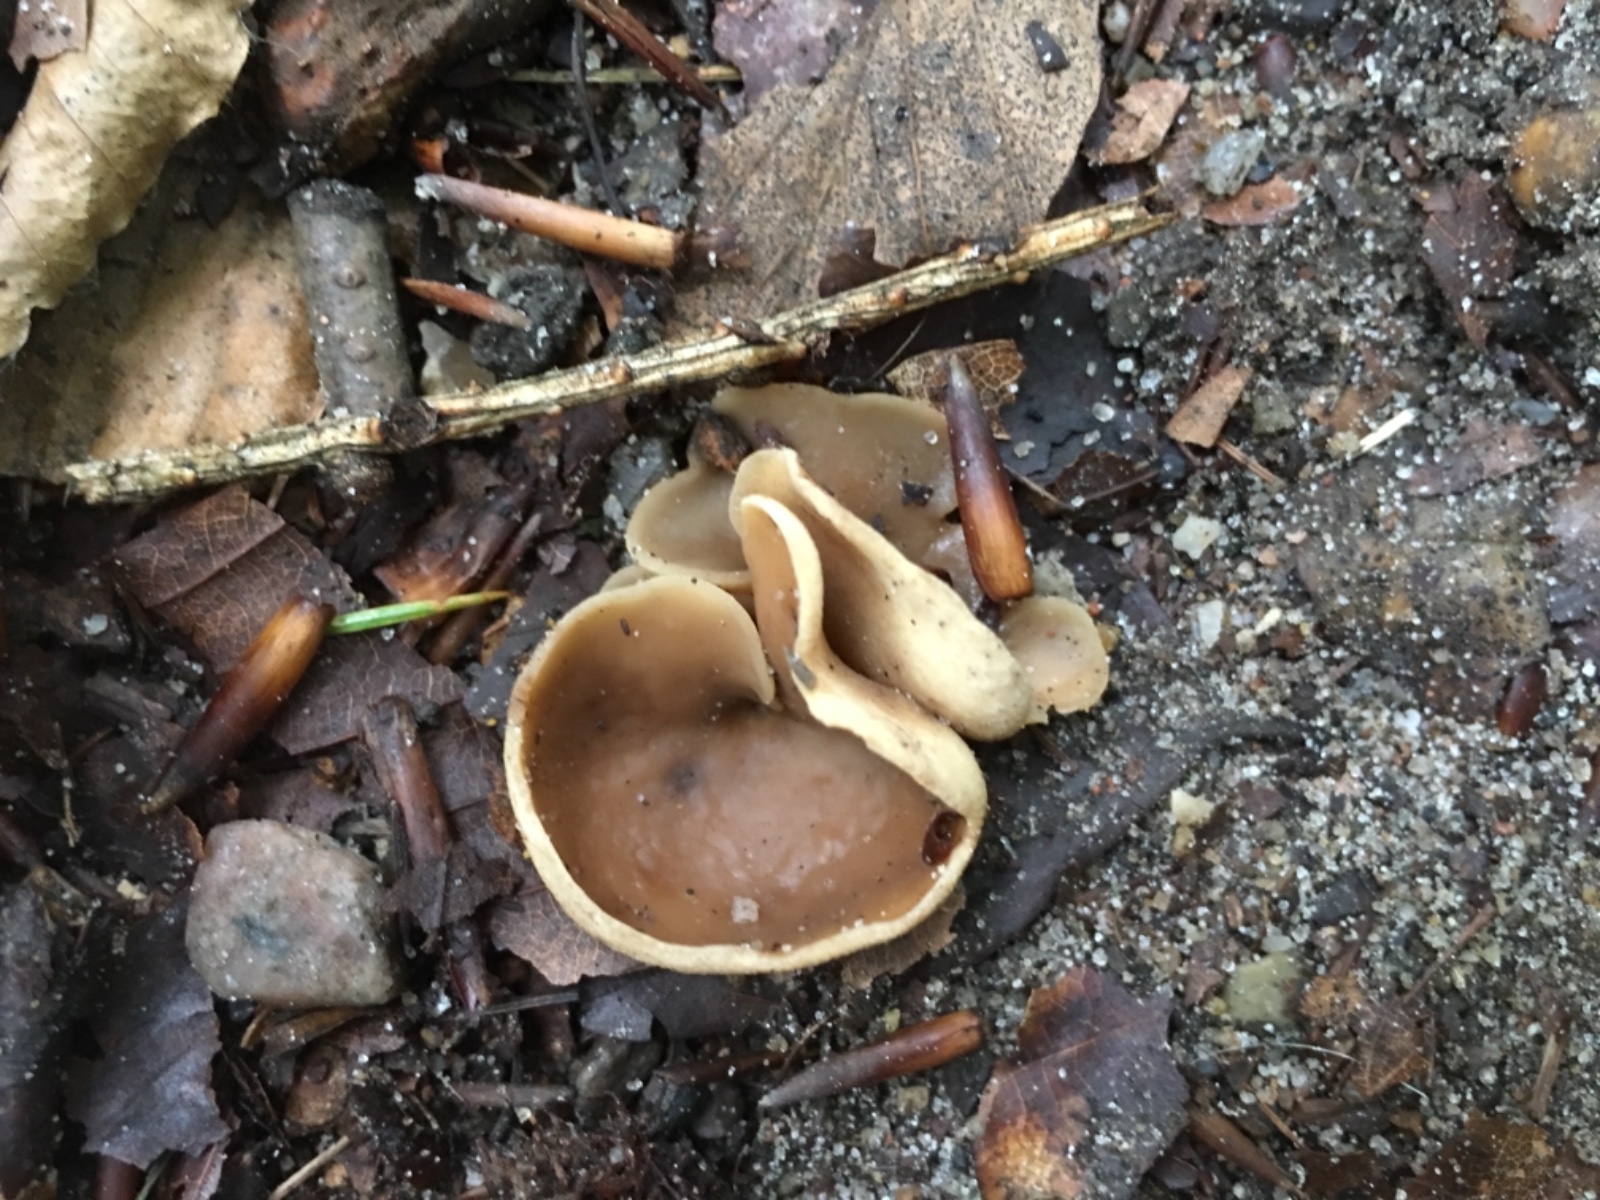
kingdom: Fungi
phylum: Ascomycota
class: Pezizomycetes
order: Pezizales
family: Pezizaceae
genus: Peziza
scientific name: Peziza
